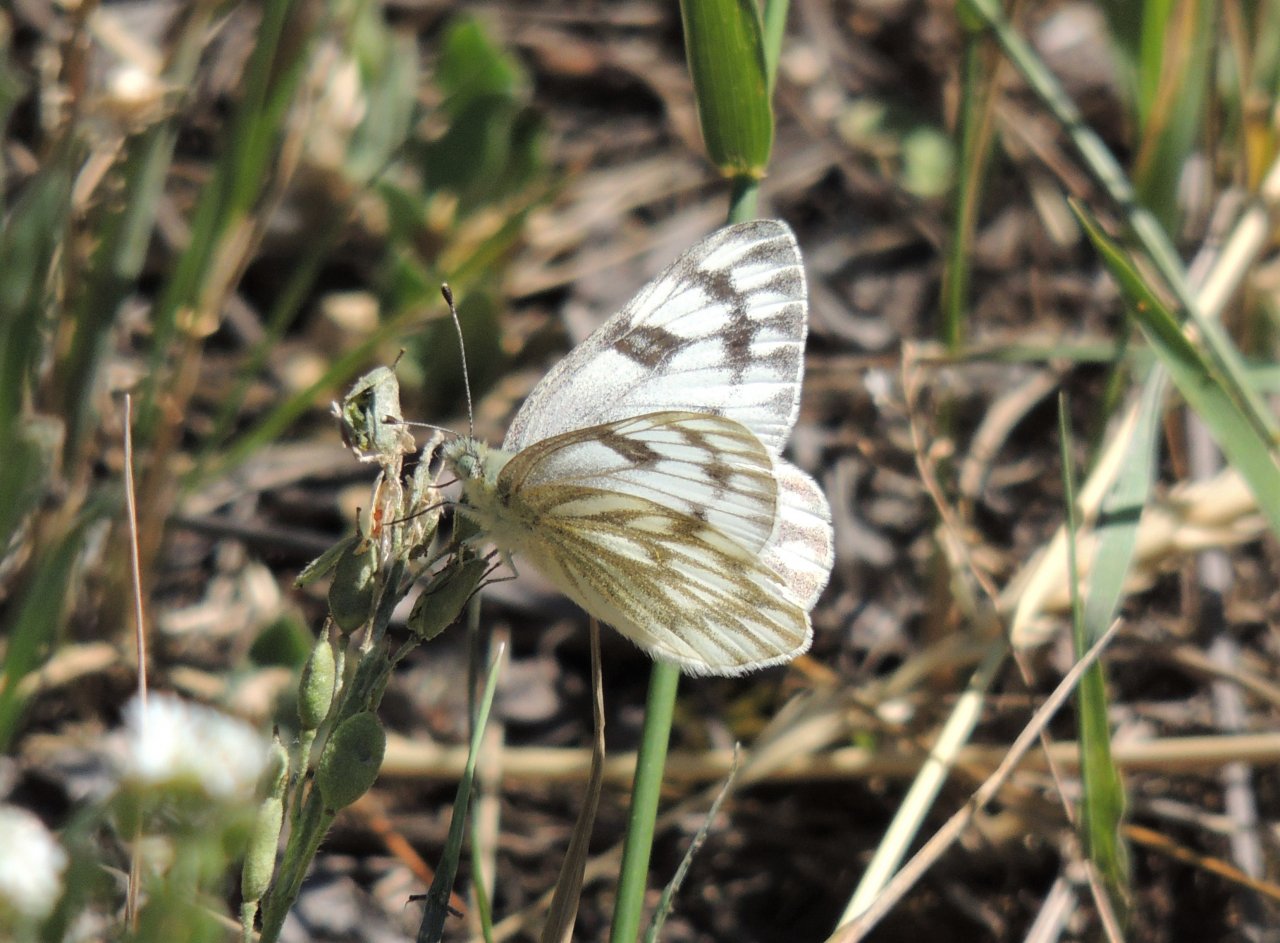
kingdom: Animalia
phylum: Arthropoda
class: Insecta
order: Lepidoptera
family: Pieridae
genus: Pontia
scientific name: Pontia occidentalis
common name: Western White
